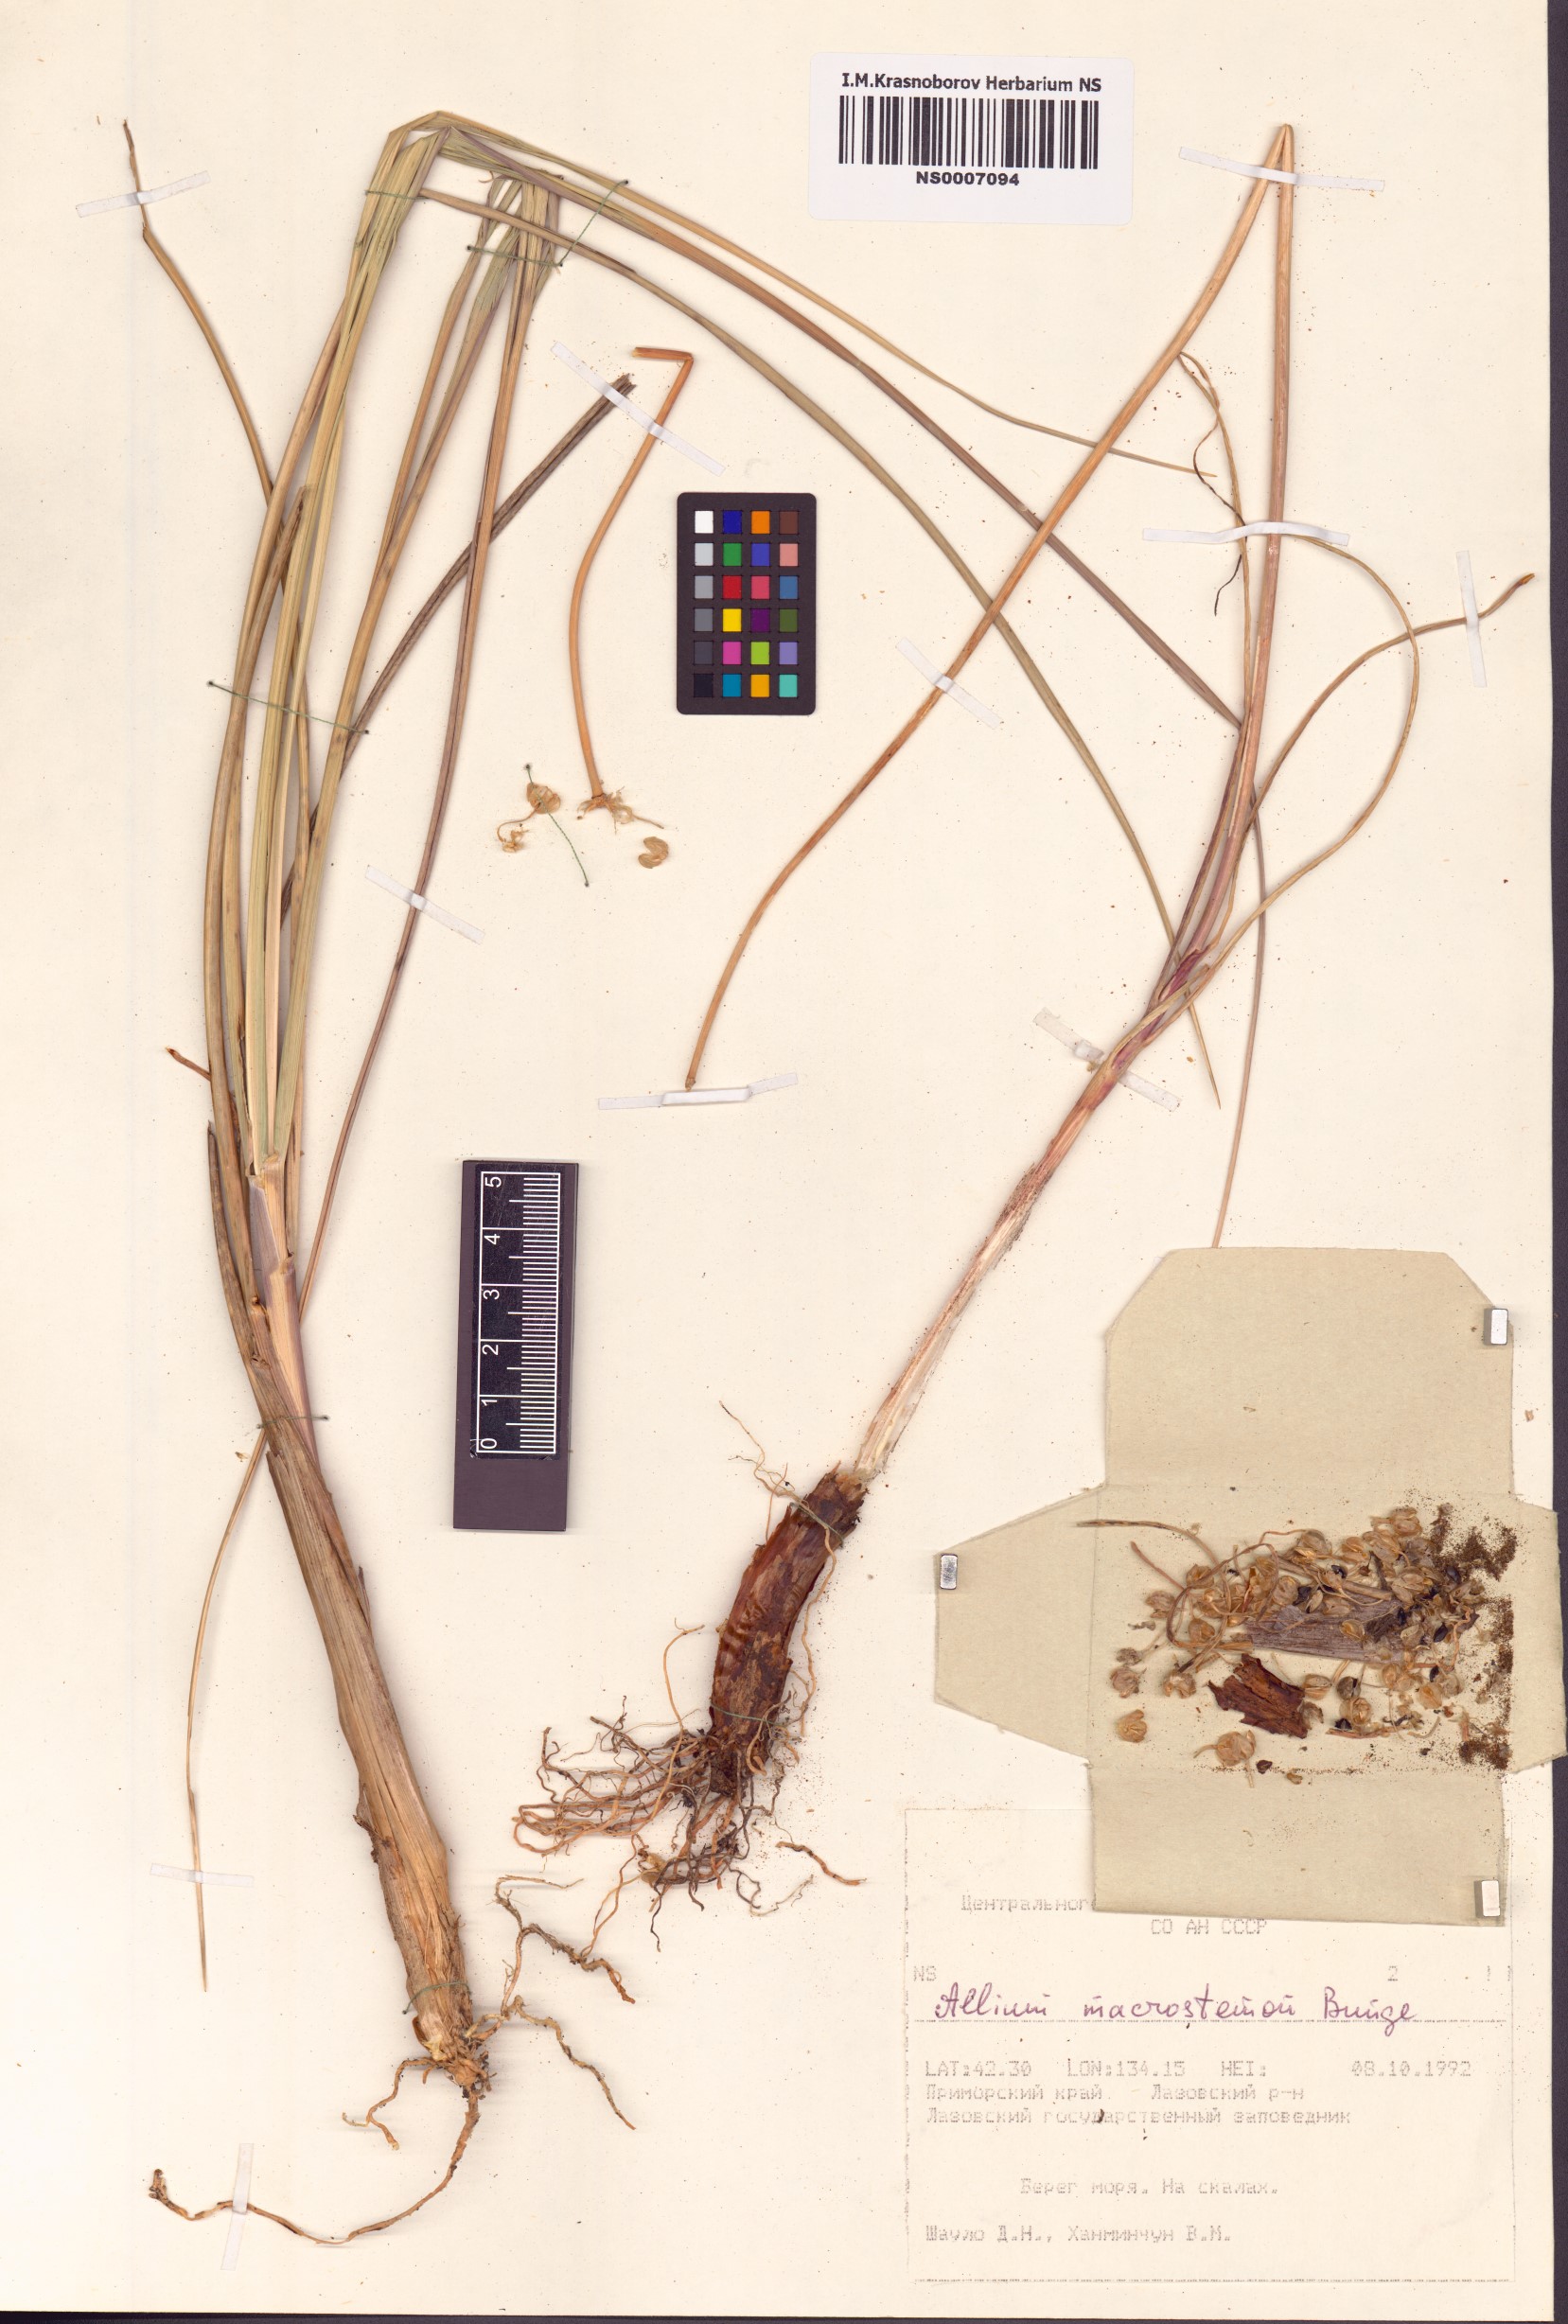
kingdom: Plantae
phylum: Tracheophyta
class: Liliopsida
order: Asparagales
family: Amaryllidaceae
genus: Allium
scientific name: Allium macrostemon
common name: Chinese garlic
